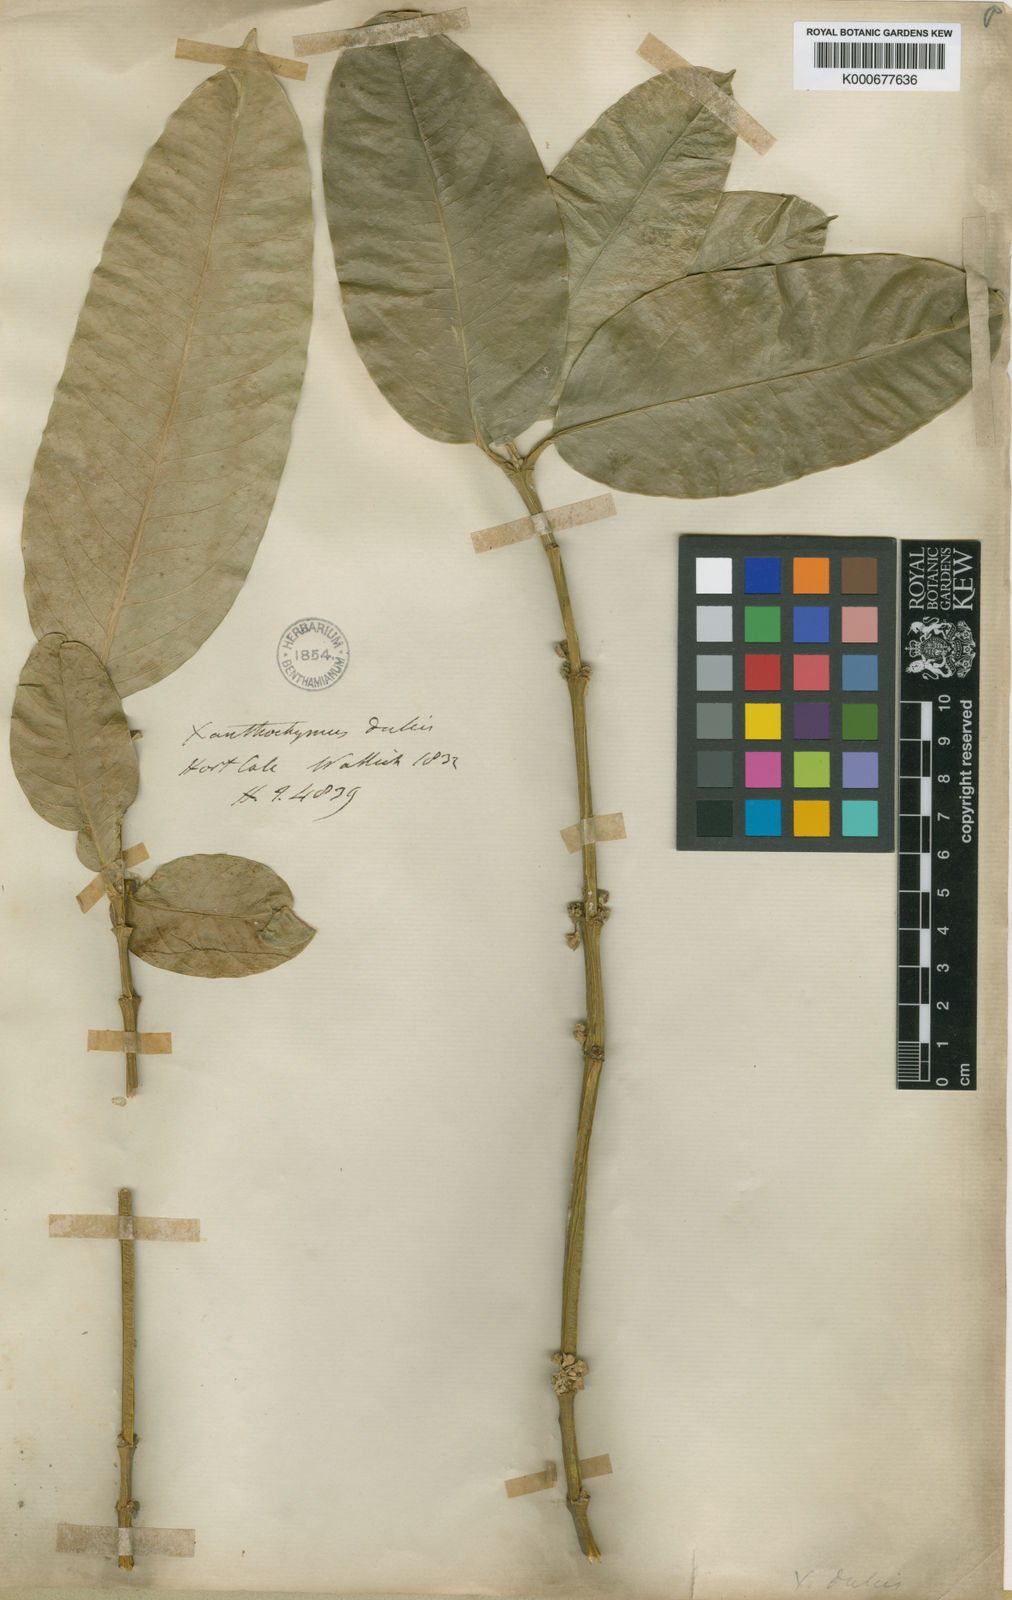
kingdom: Plantae
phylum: Tracheophyta
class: Magnoliopsida
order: Malpighiales
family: Clusiaceae
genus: Garcinia
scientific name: Garcinia dulcis
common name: Eggtree
